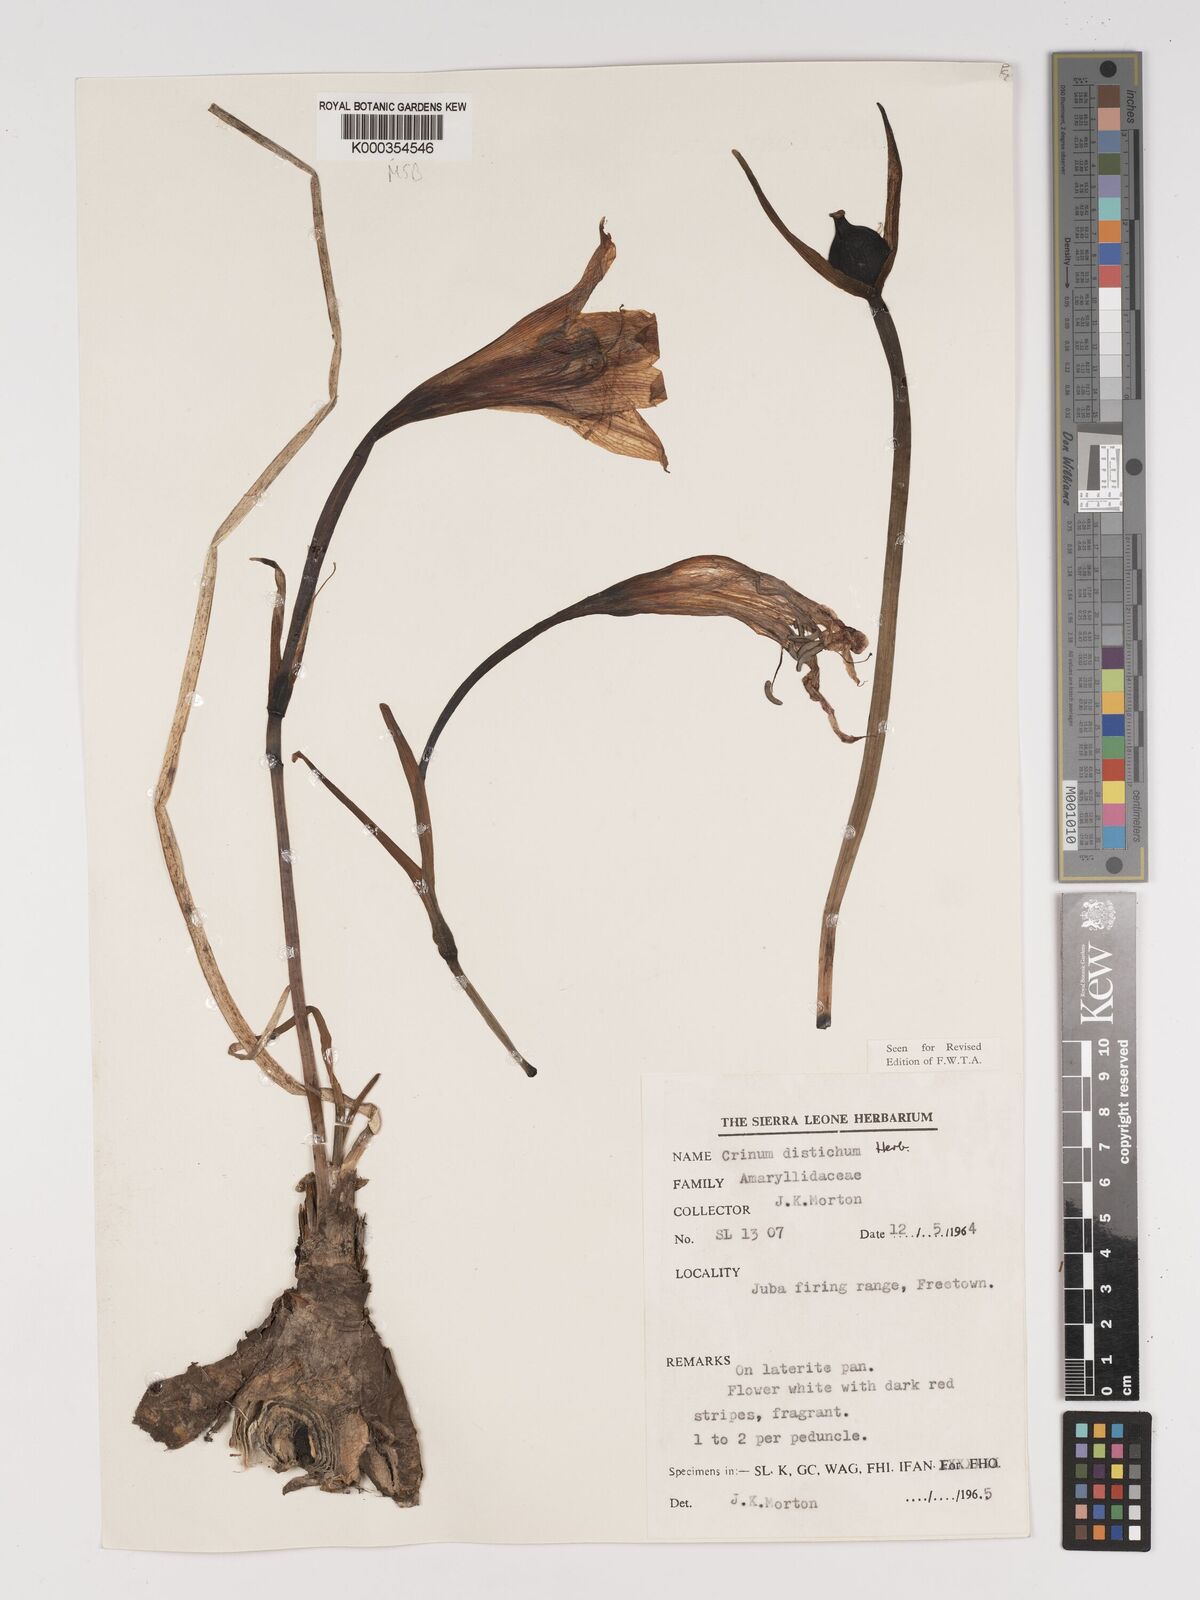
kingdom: Plantae
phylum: Tracheophyta
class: Liliopsida
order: Asparagales
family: Amaryllidaceae
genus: Crinum
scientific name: Crinum zeylanicum
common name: Ceylon swamplily
